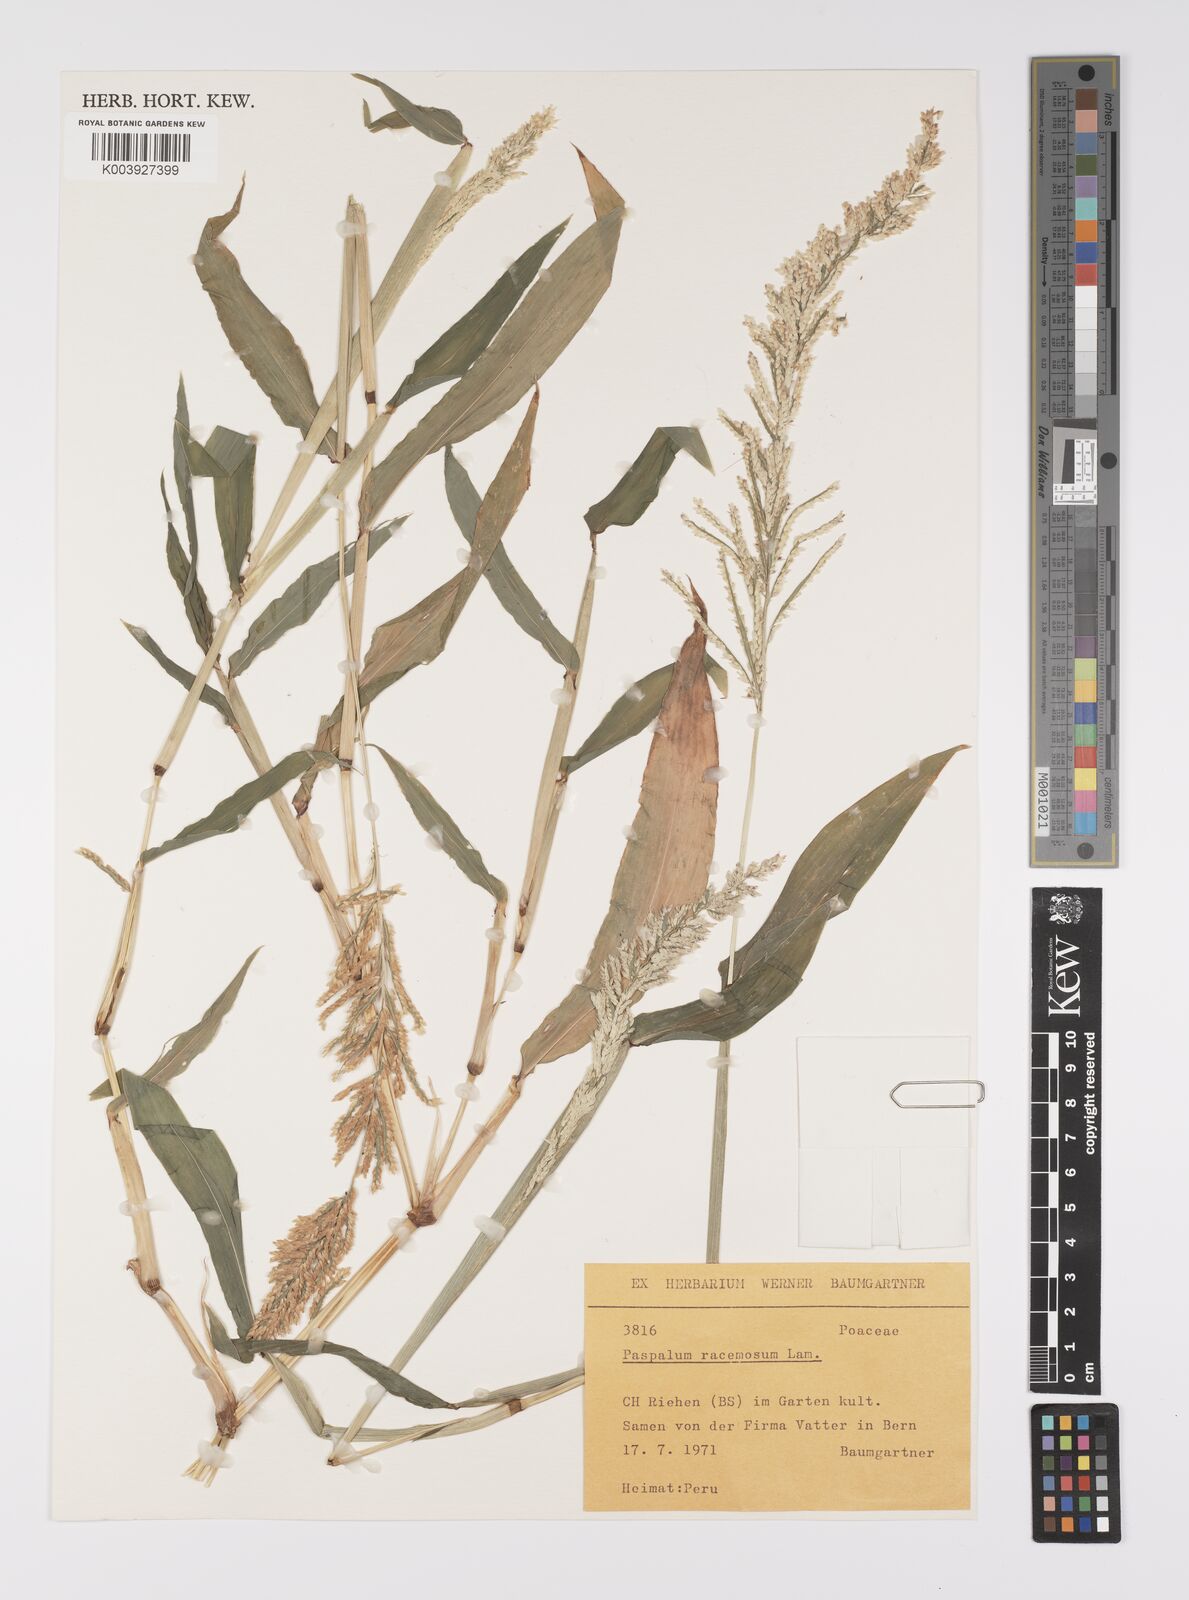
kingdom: Plantae
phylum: Tracheophyta
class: Liliopsida
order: Poales
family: Poaceae
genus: Paspalum
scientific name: Paspalum racemosum
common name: Peruvian paspalum
